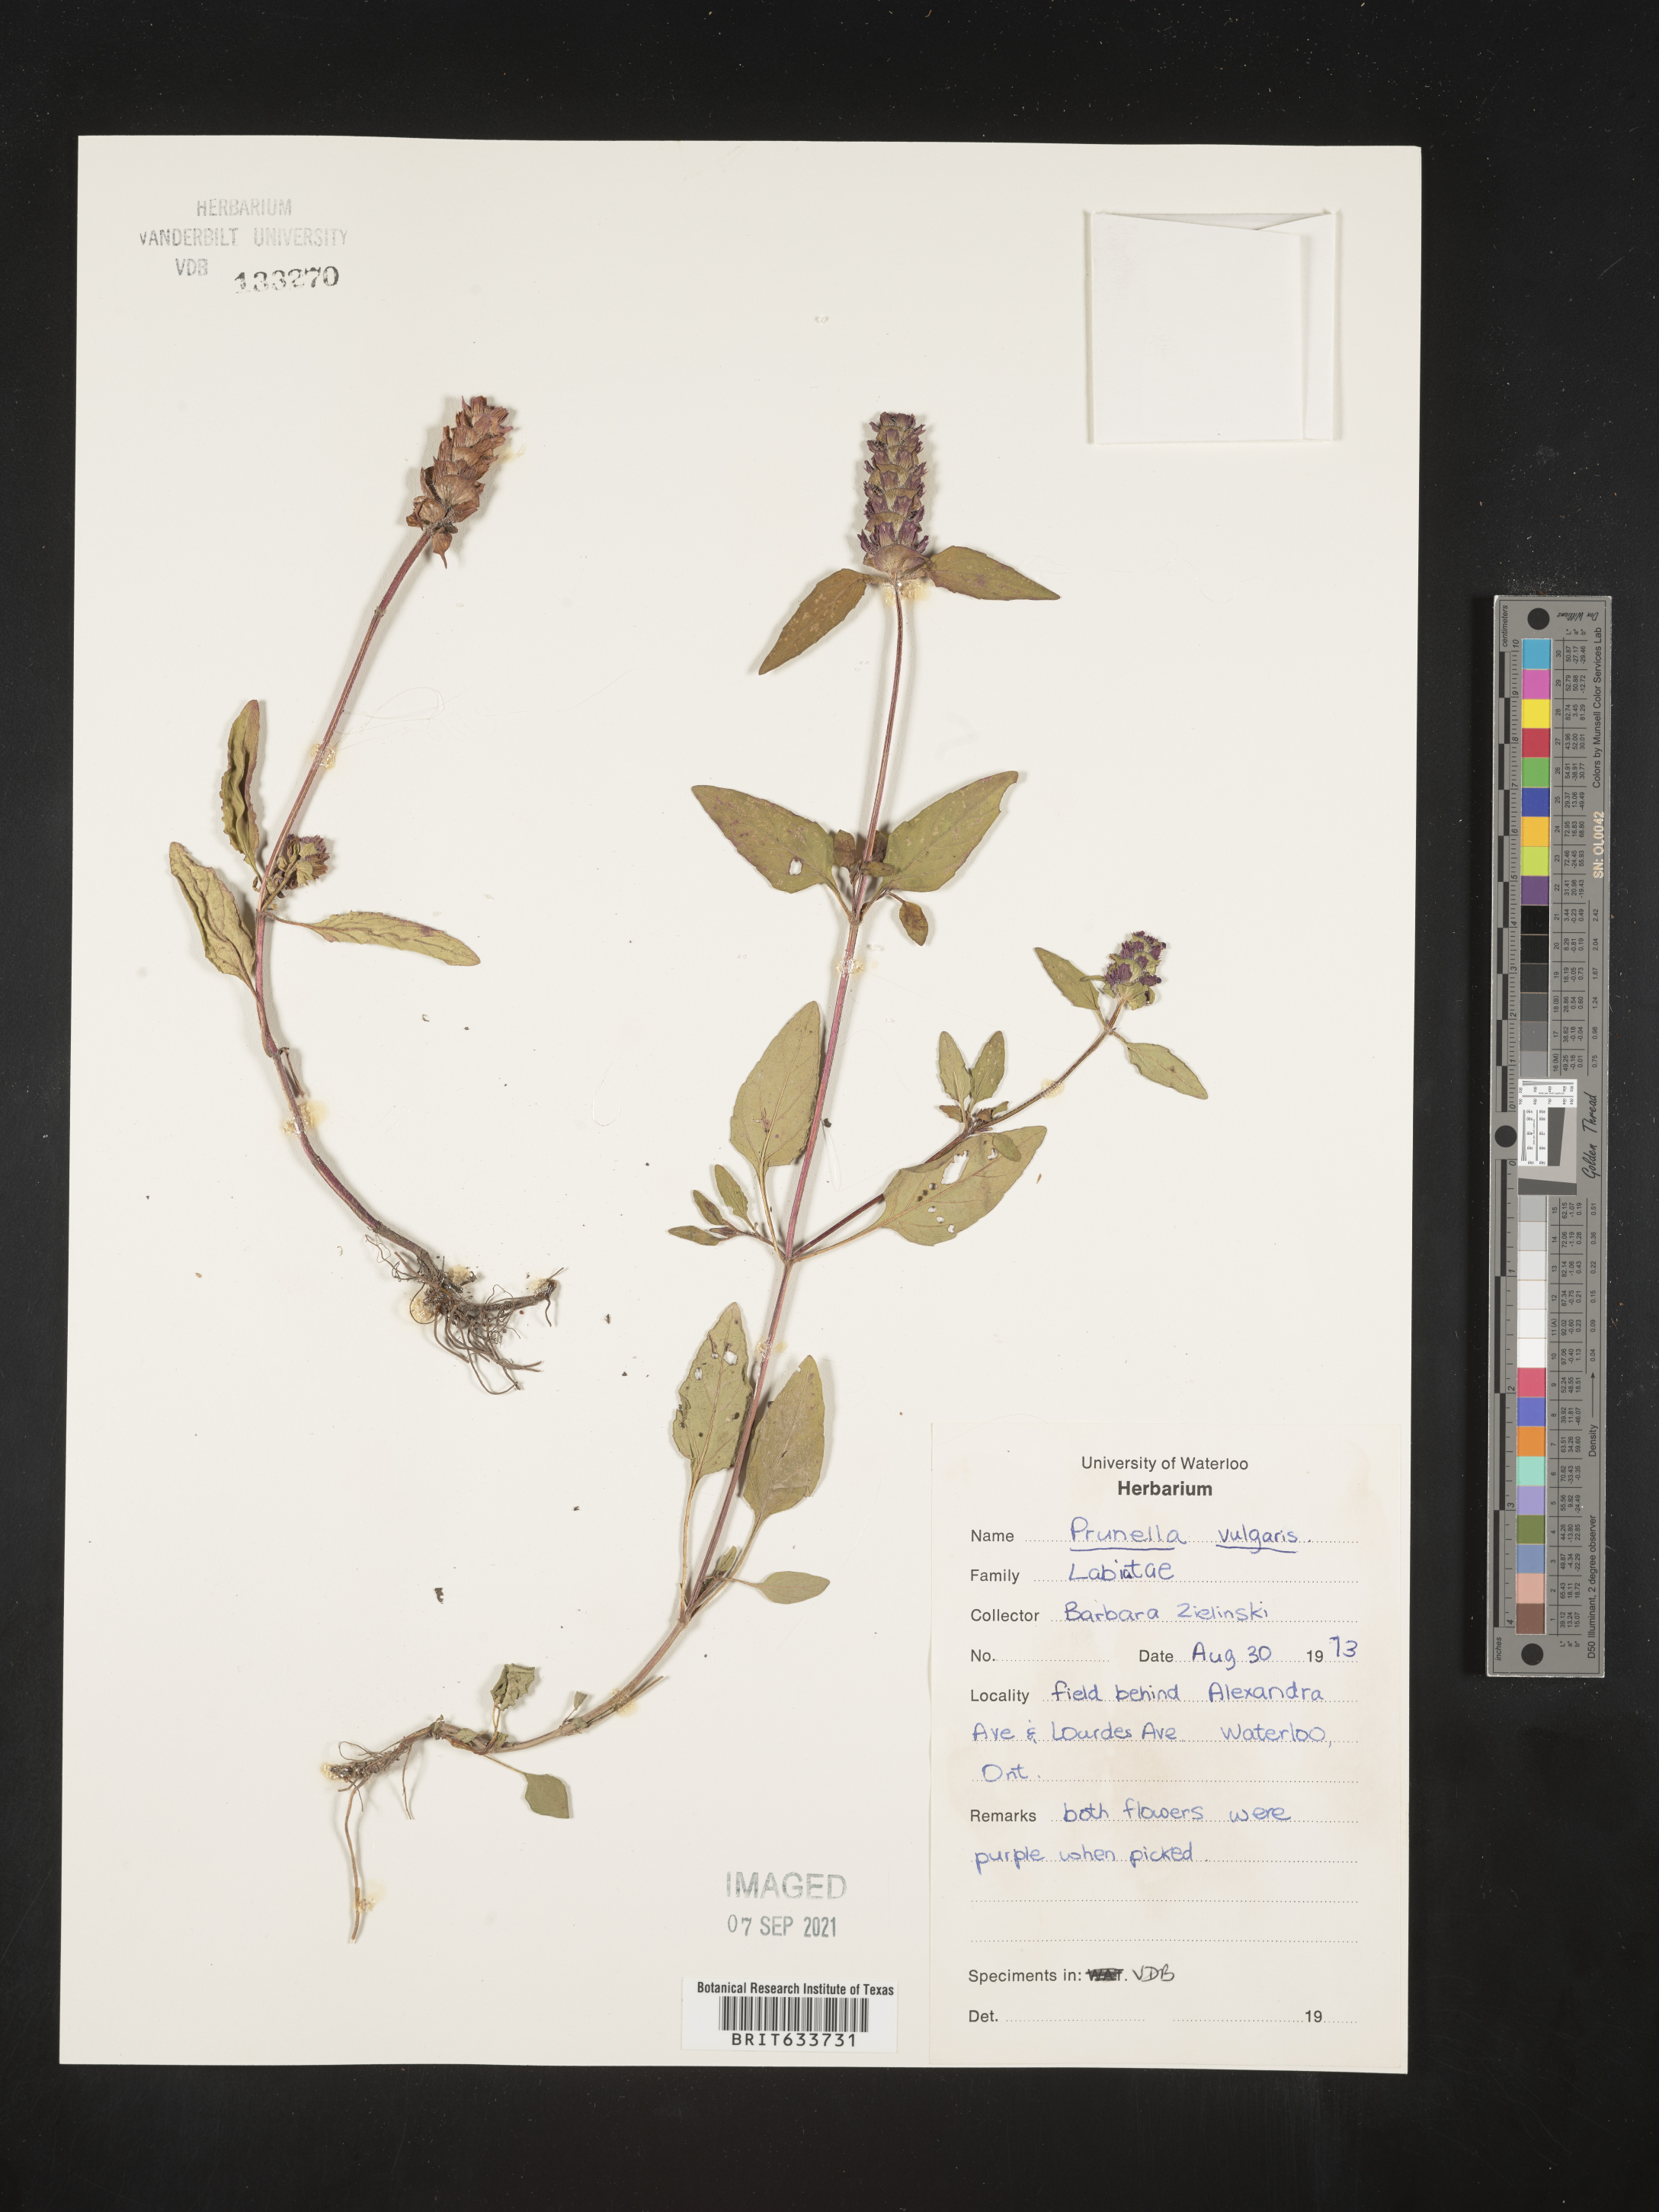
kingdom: Plantae
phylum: Tracheophyta
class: Magnoliopsida
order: Lamiales
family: Lamiaceae
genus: Prunella
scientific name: Prunella
